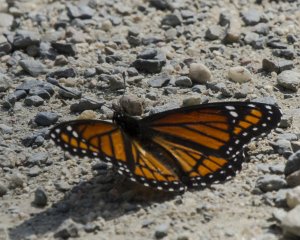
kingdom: Animalia
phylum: Arthropoda
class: Insecta
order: Lepidoptera
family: Nymphalidae
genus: Limenitis
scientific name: Limenitis archippus
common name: Viceroy
